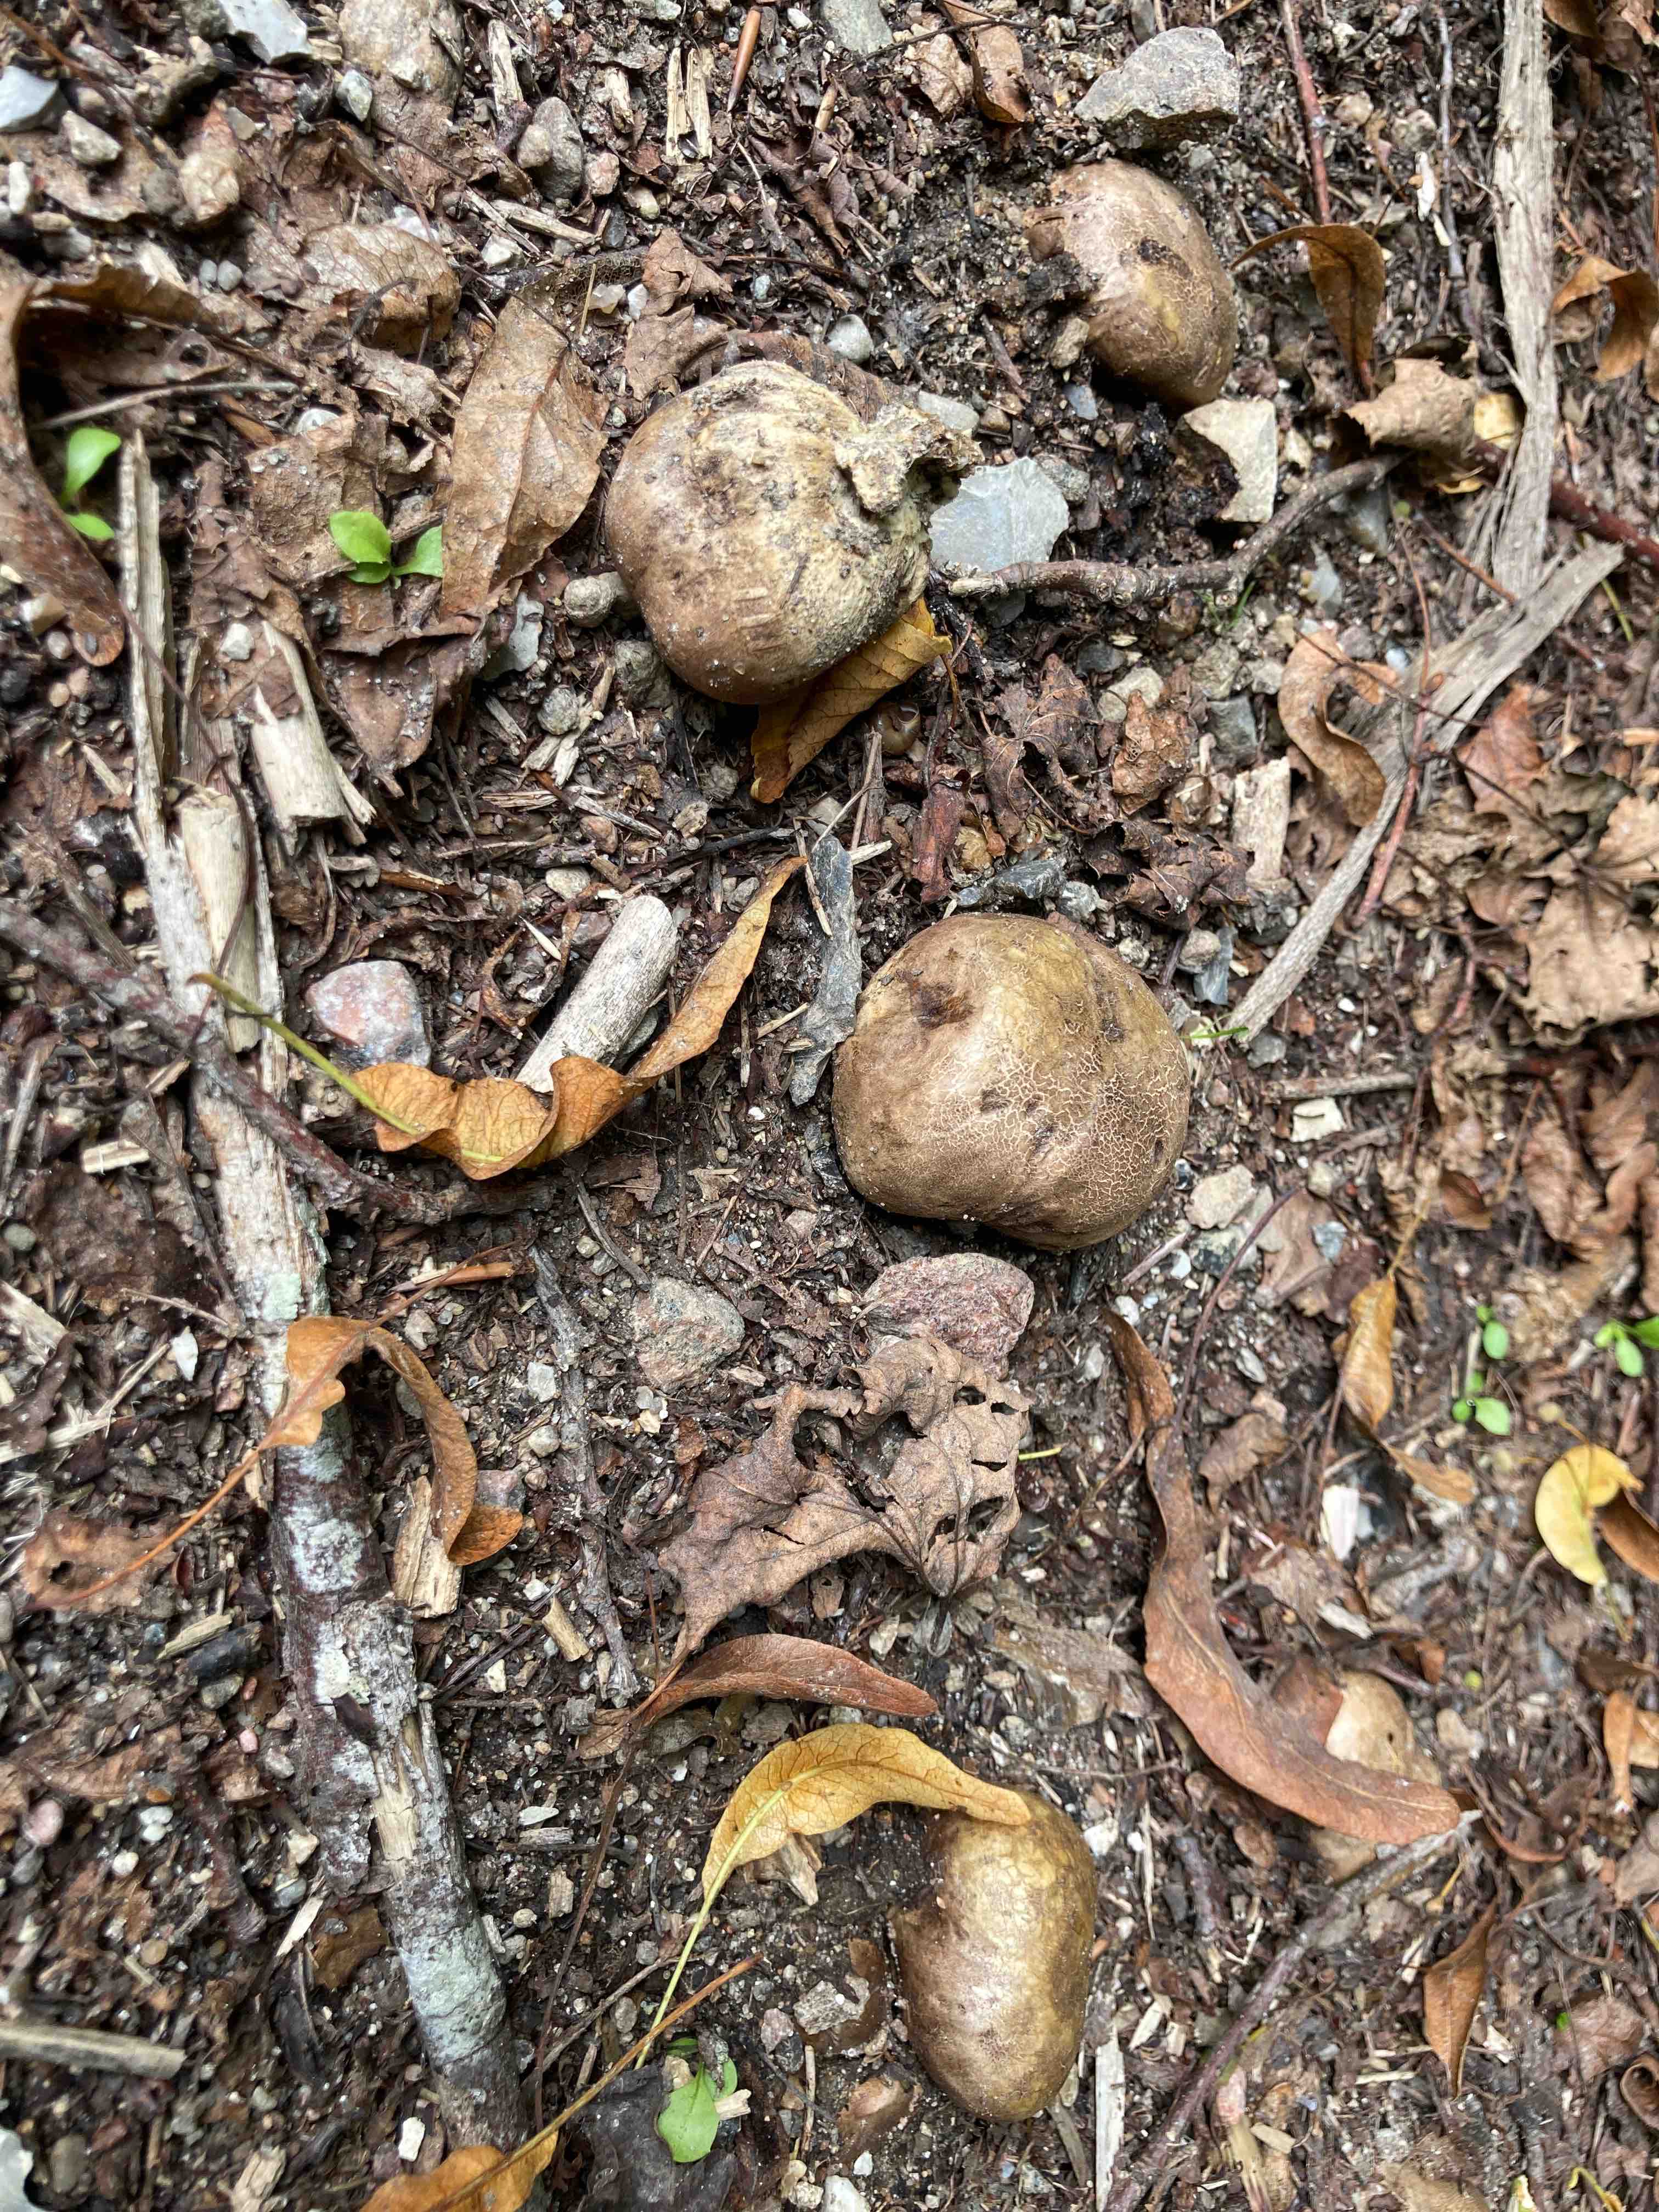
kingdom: Fungi
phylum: Basidiomycota
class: Agaricomycetes
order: Boletales
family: Sclerodermataceae
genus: Scleroderma
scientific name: Scleroderma
